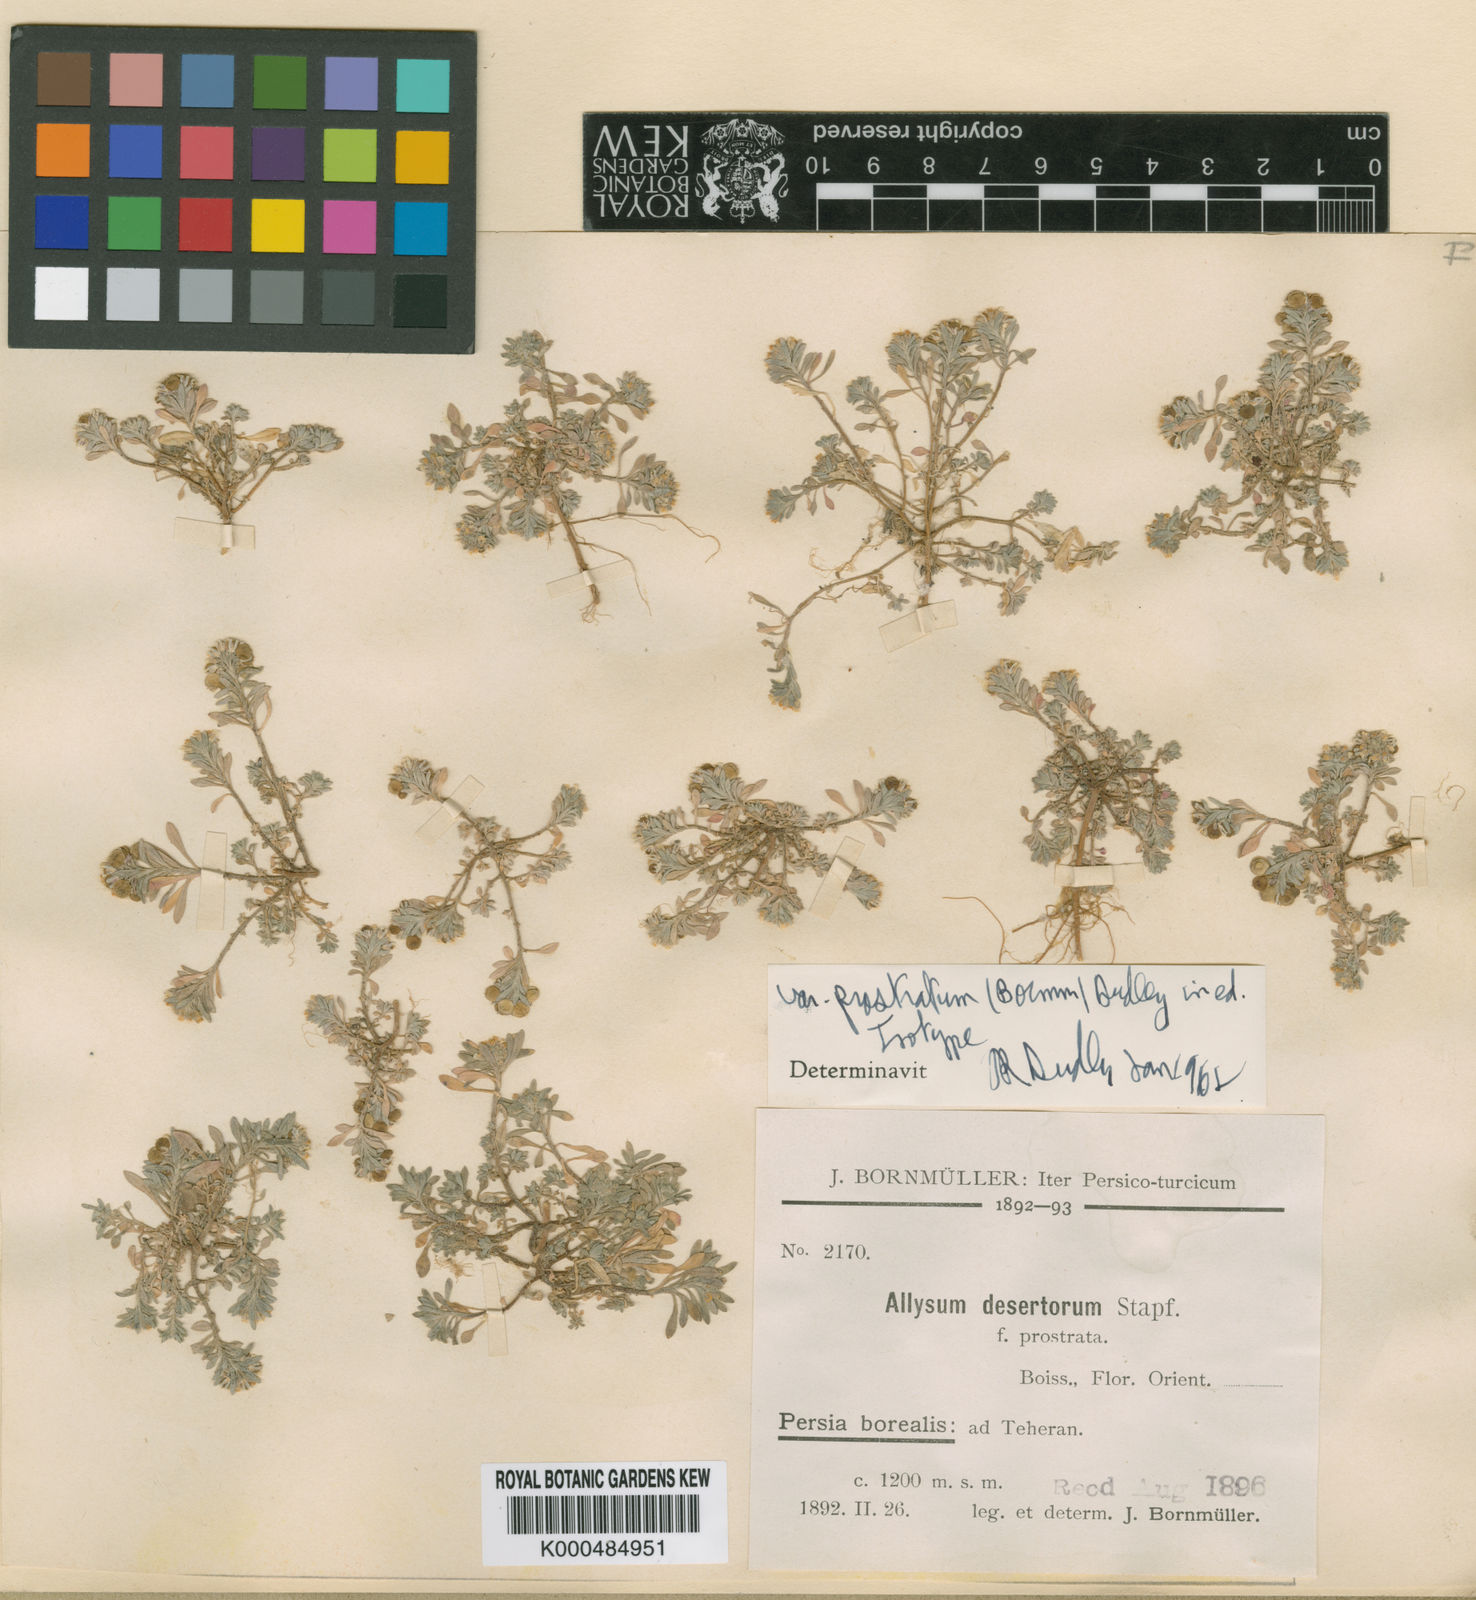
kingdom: Plantae
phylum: Tracheophyta
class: Magnoliopsida
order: Brassicales
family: Brassicaceae
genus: Alyssum
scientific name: Alyssum turkestanicum
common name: Desert alyssum
